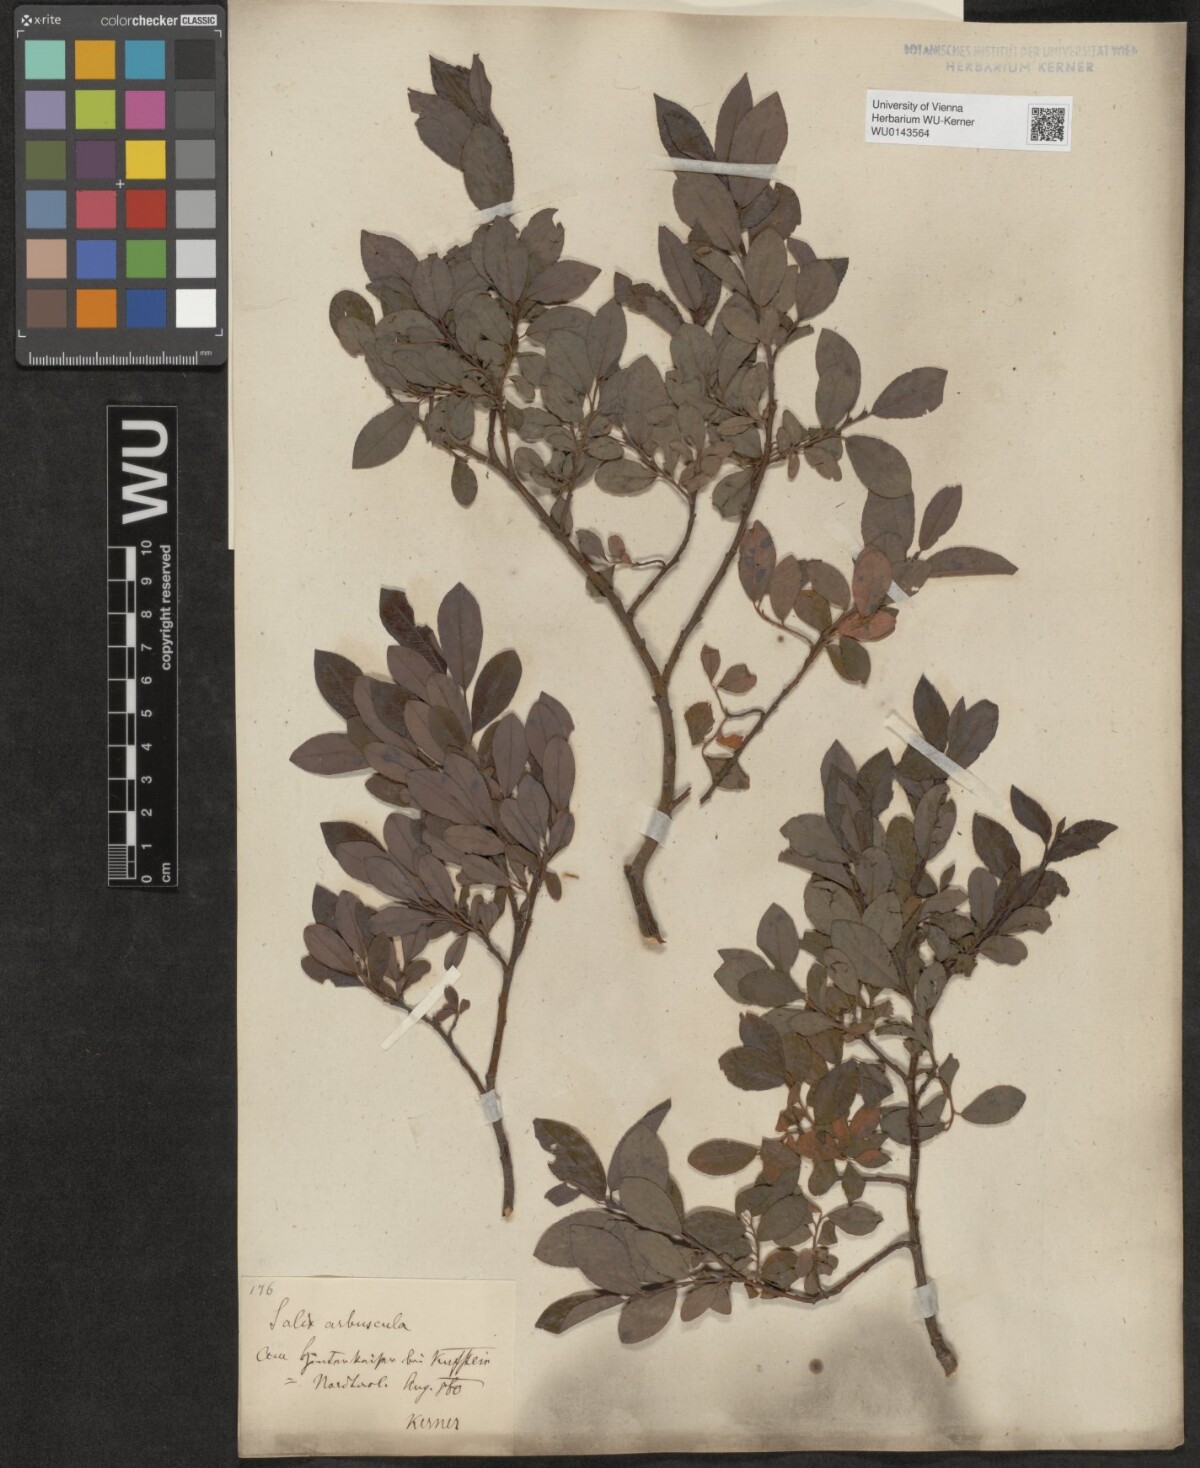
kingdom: Plantae
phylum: Tracheophyta
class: Magnoliopsida
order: Malpighiales
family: Salicaceae
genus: Salix
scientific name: Salix waldsteiniana
